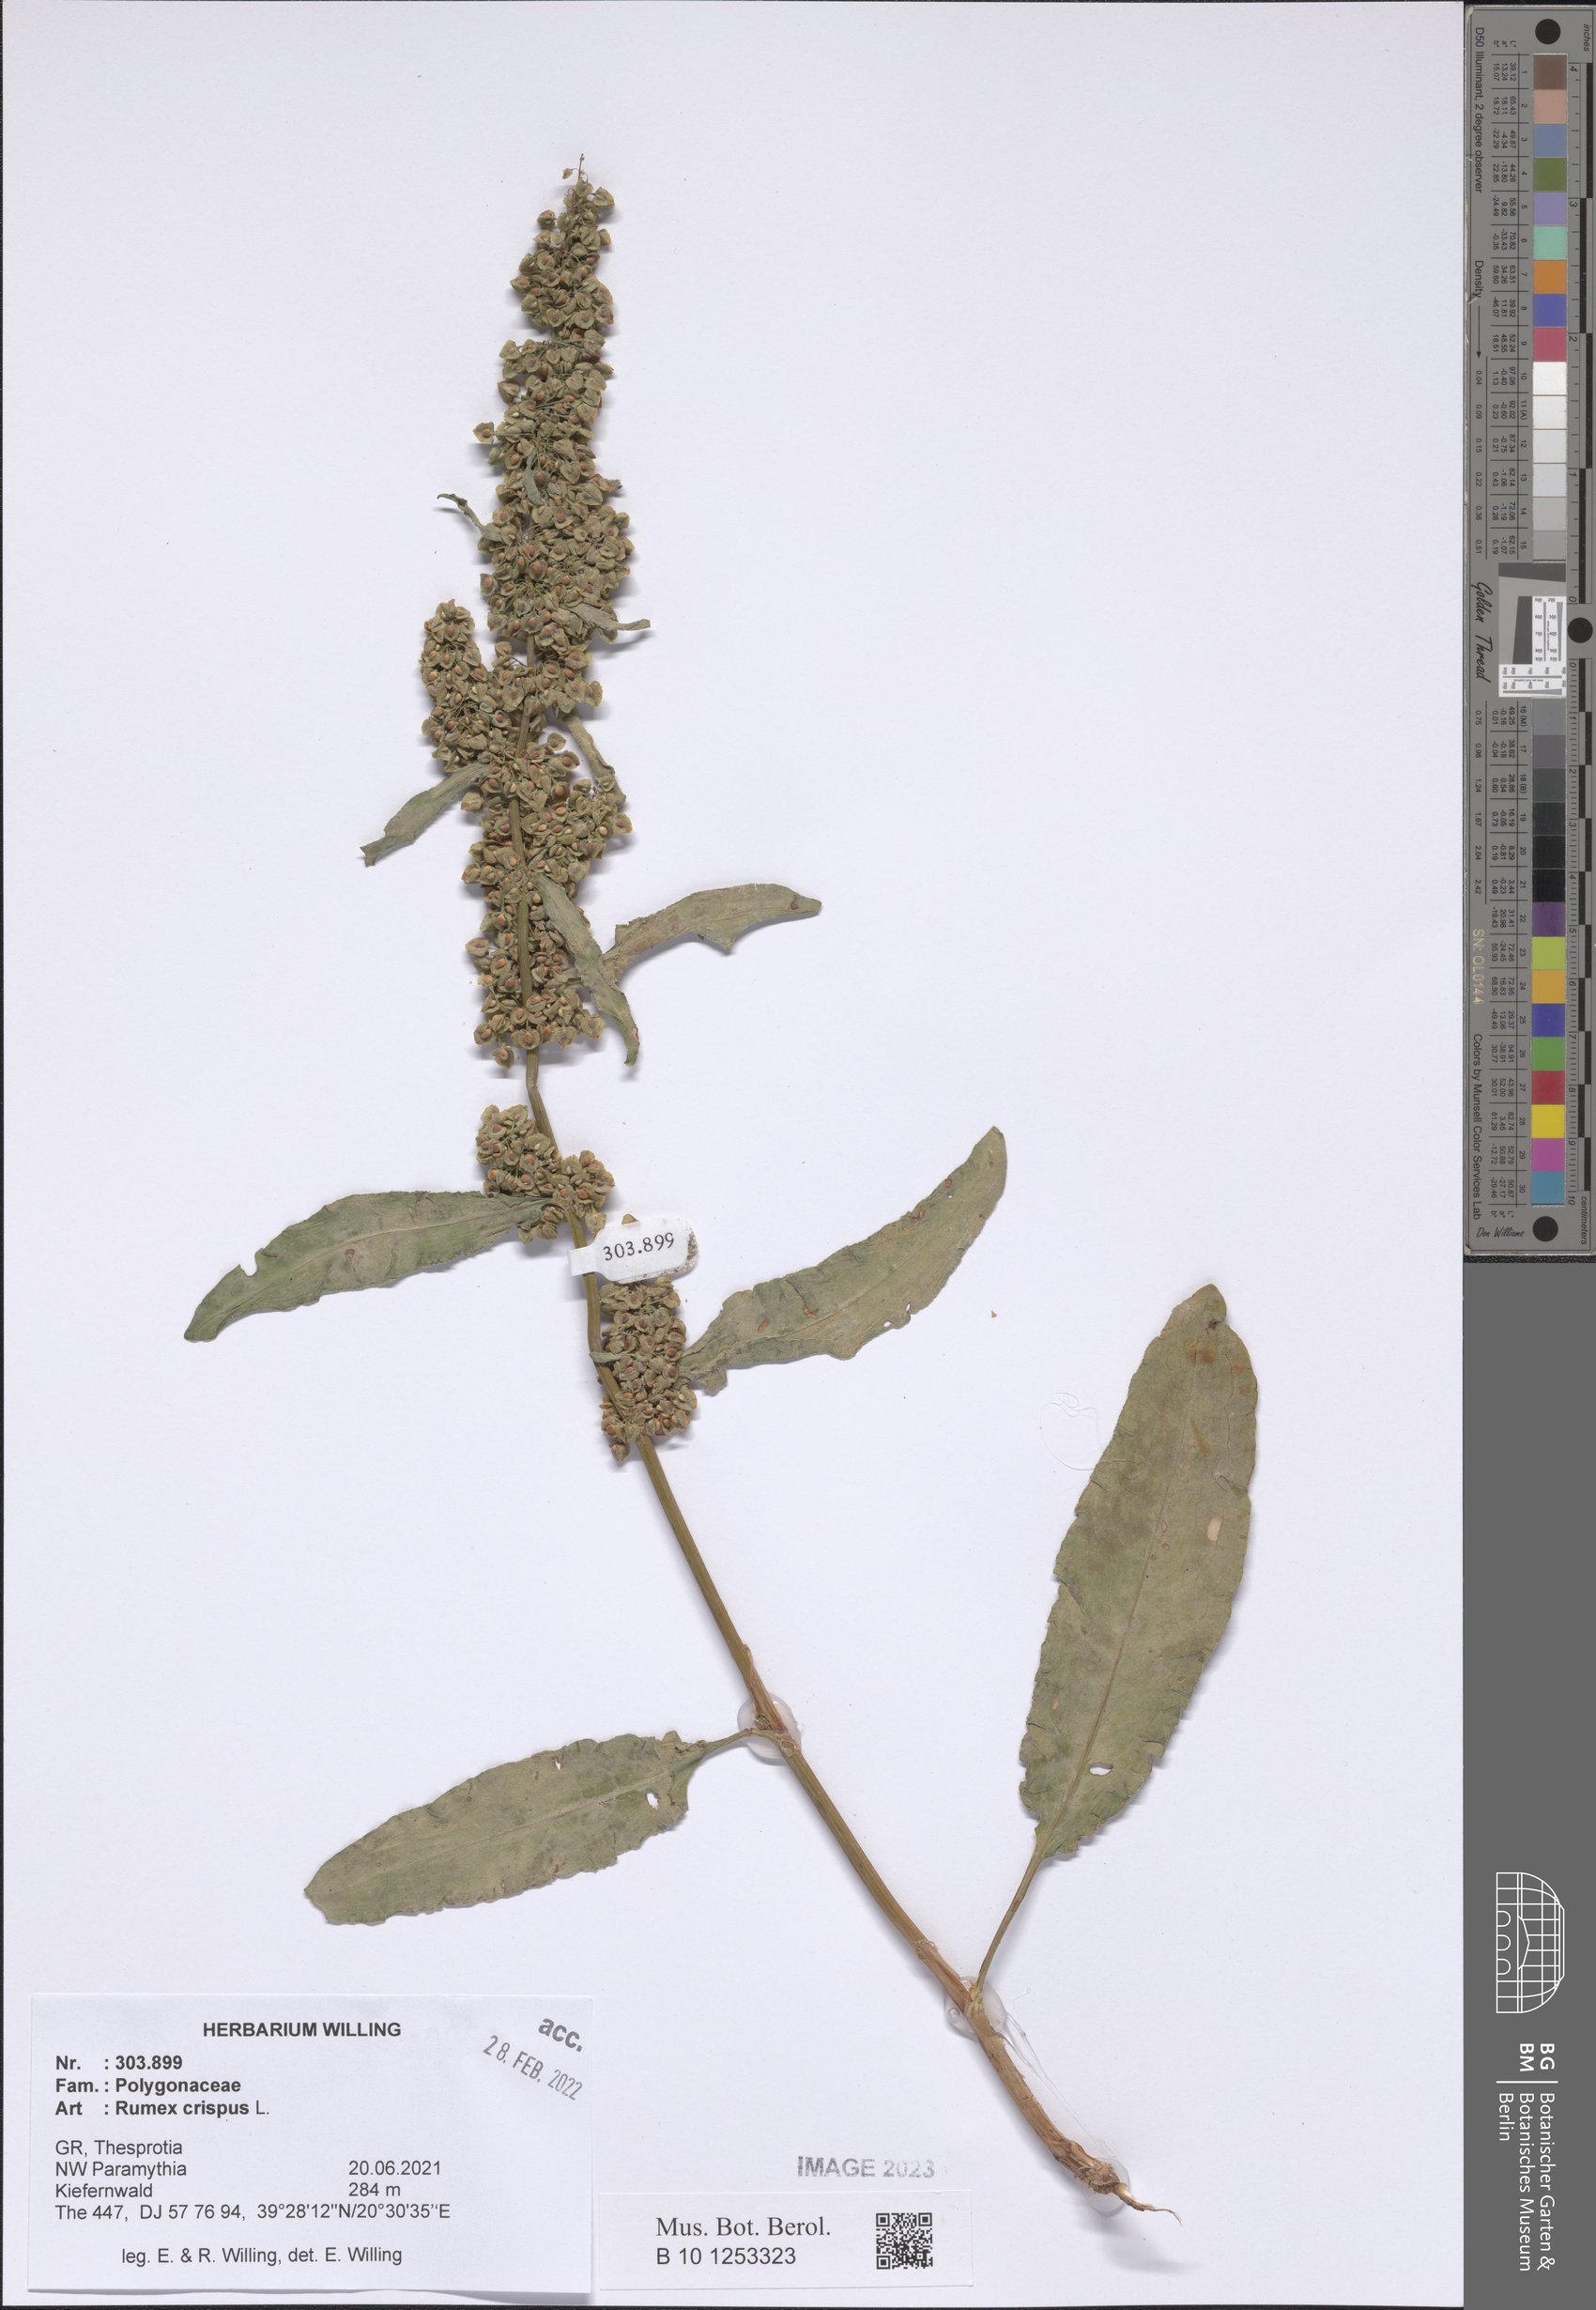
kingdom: Plantae
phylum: Tracheophyta
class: Magnoliopsida
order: Caryophyllales
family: Polygonaceae
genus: Rumex
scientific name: Rumex crispus
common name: Curled dock
